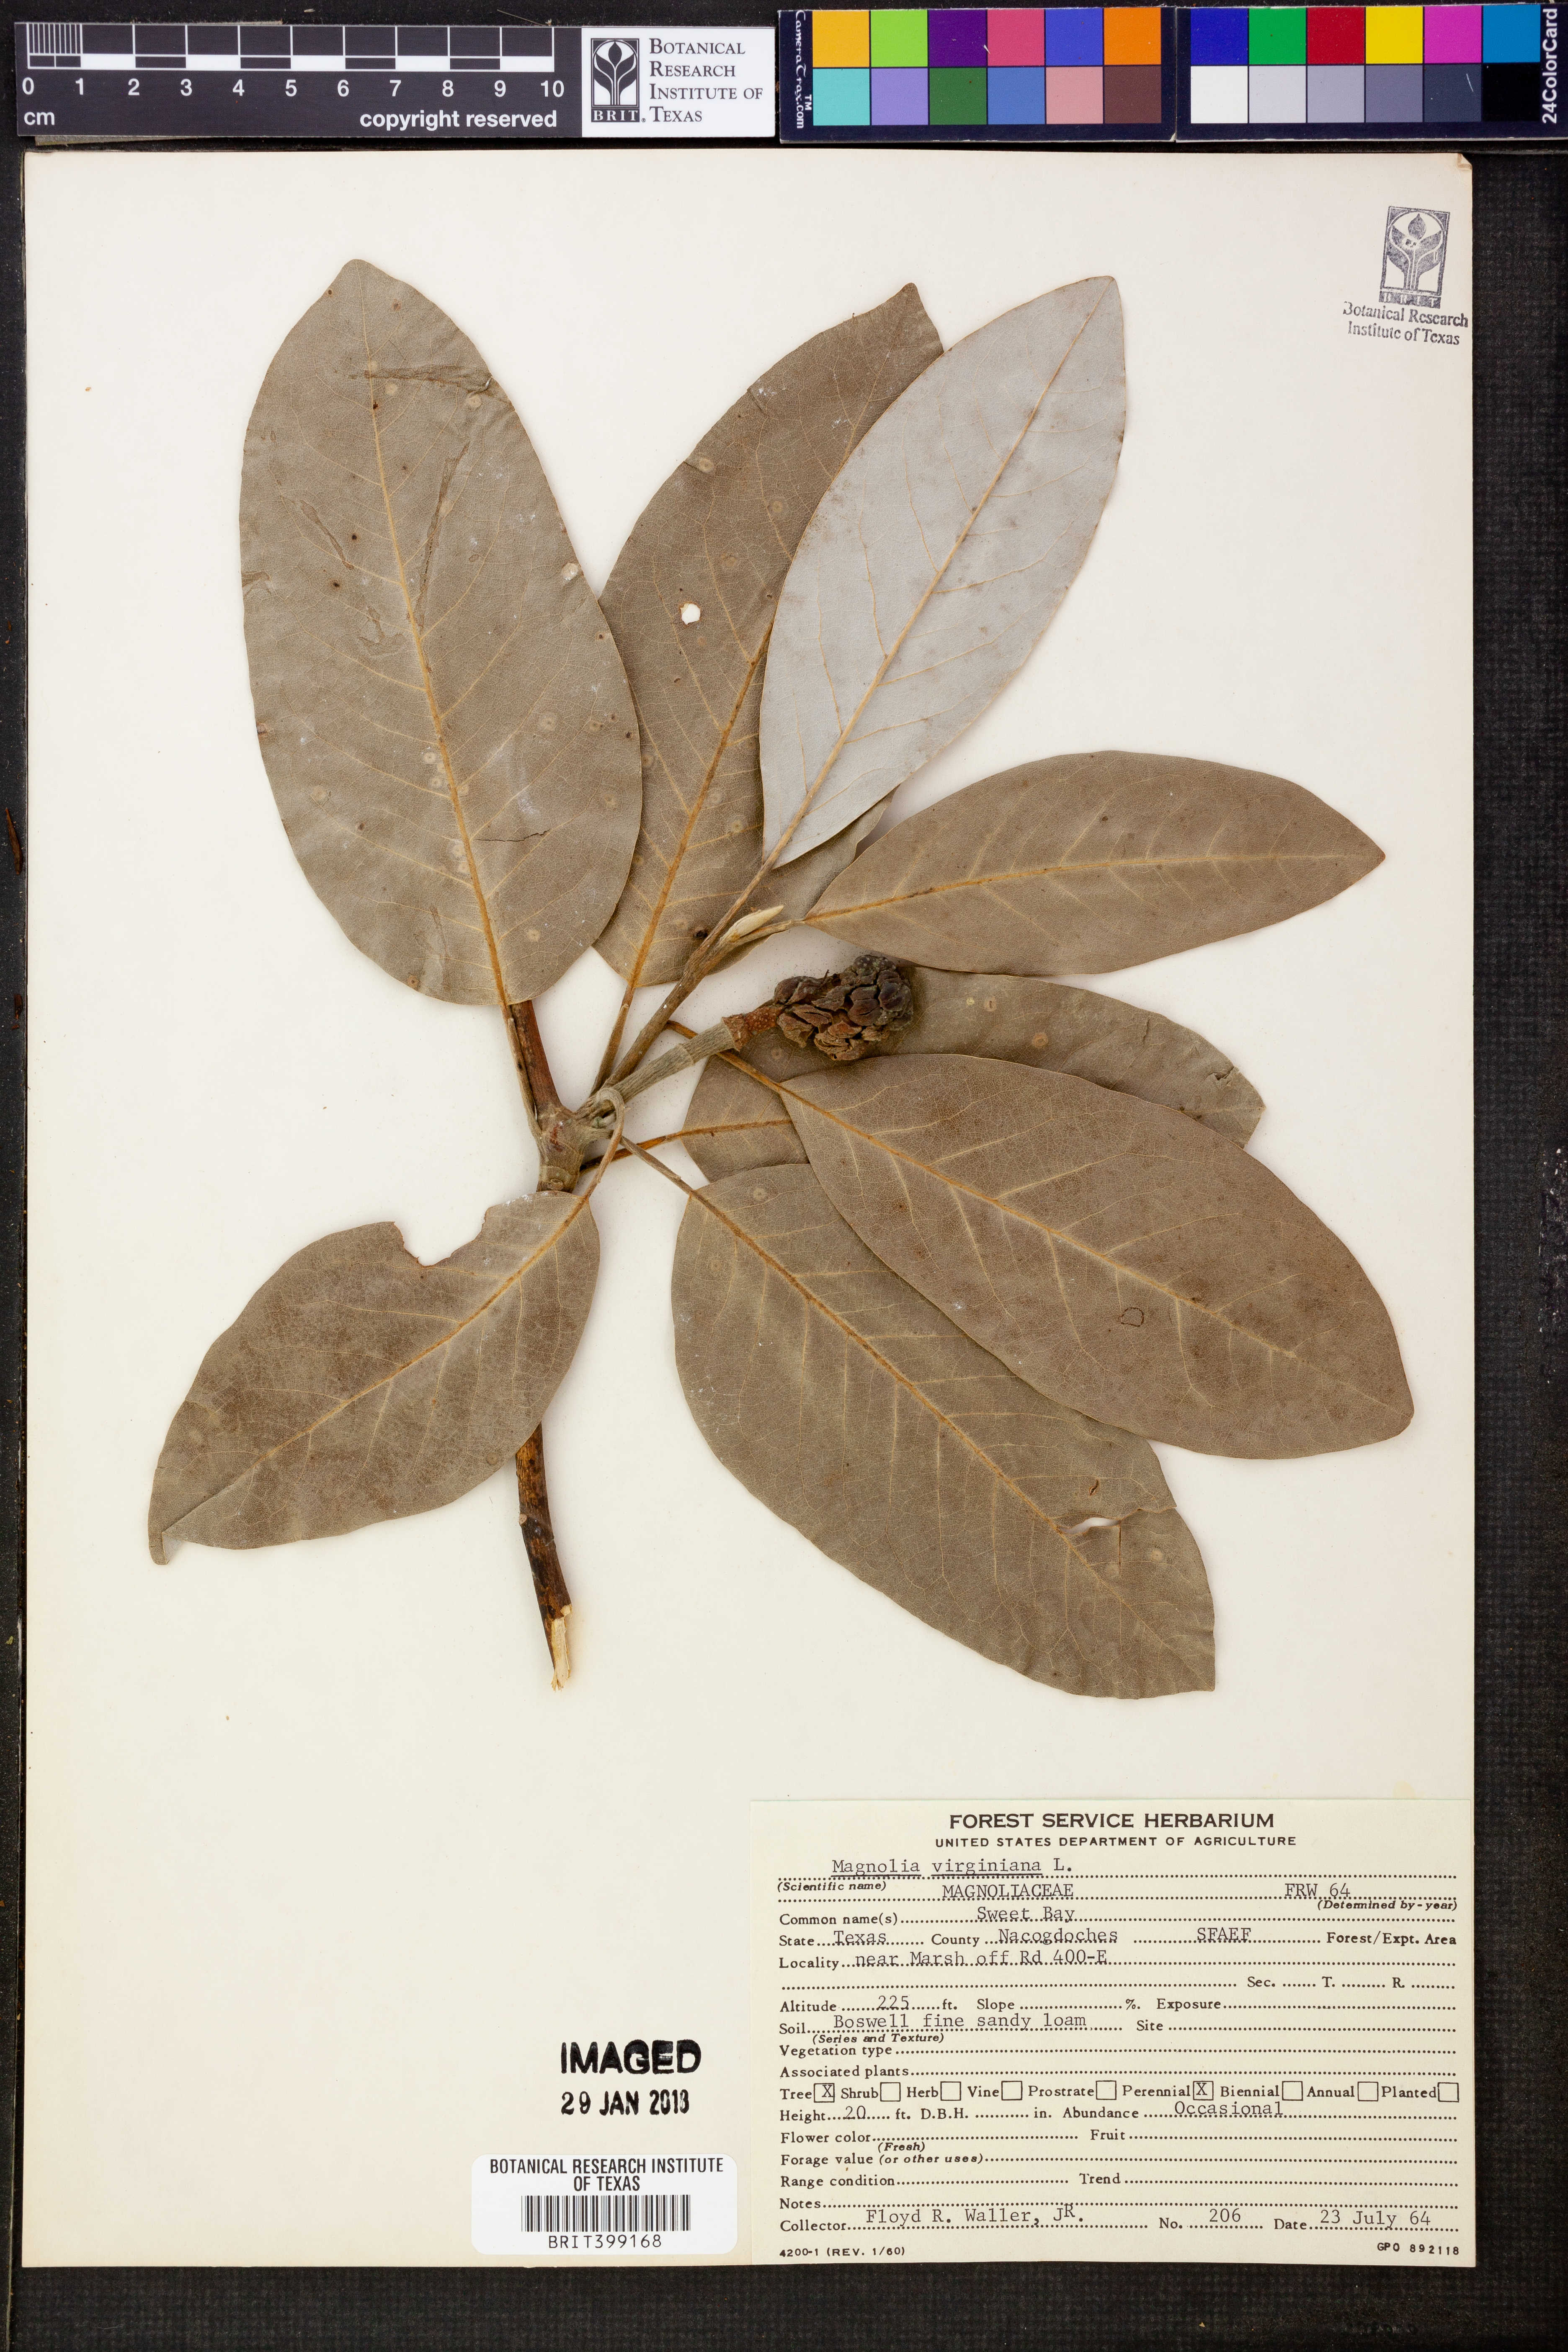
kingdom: Plantae
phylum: Tracheophyta
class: Magnoliopsida
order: Magnoliales
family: Magnoliaceae
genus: Magnolia
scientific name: Magnolia virginiana
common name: Swamp bay
